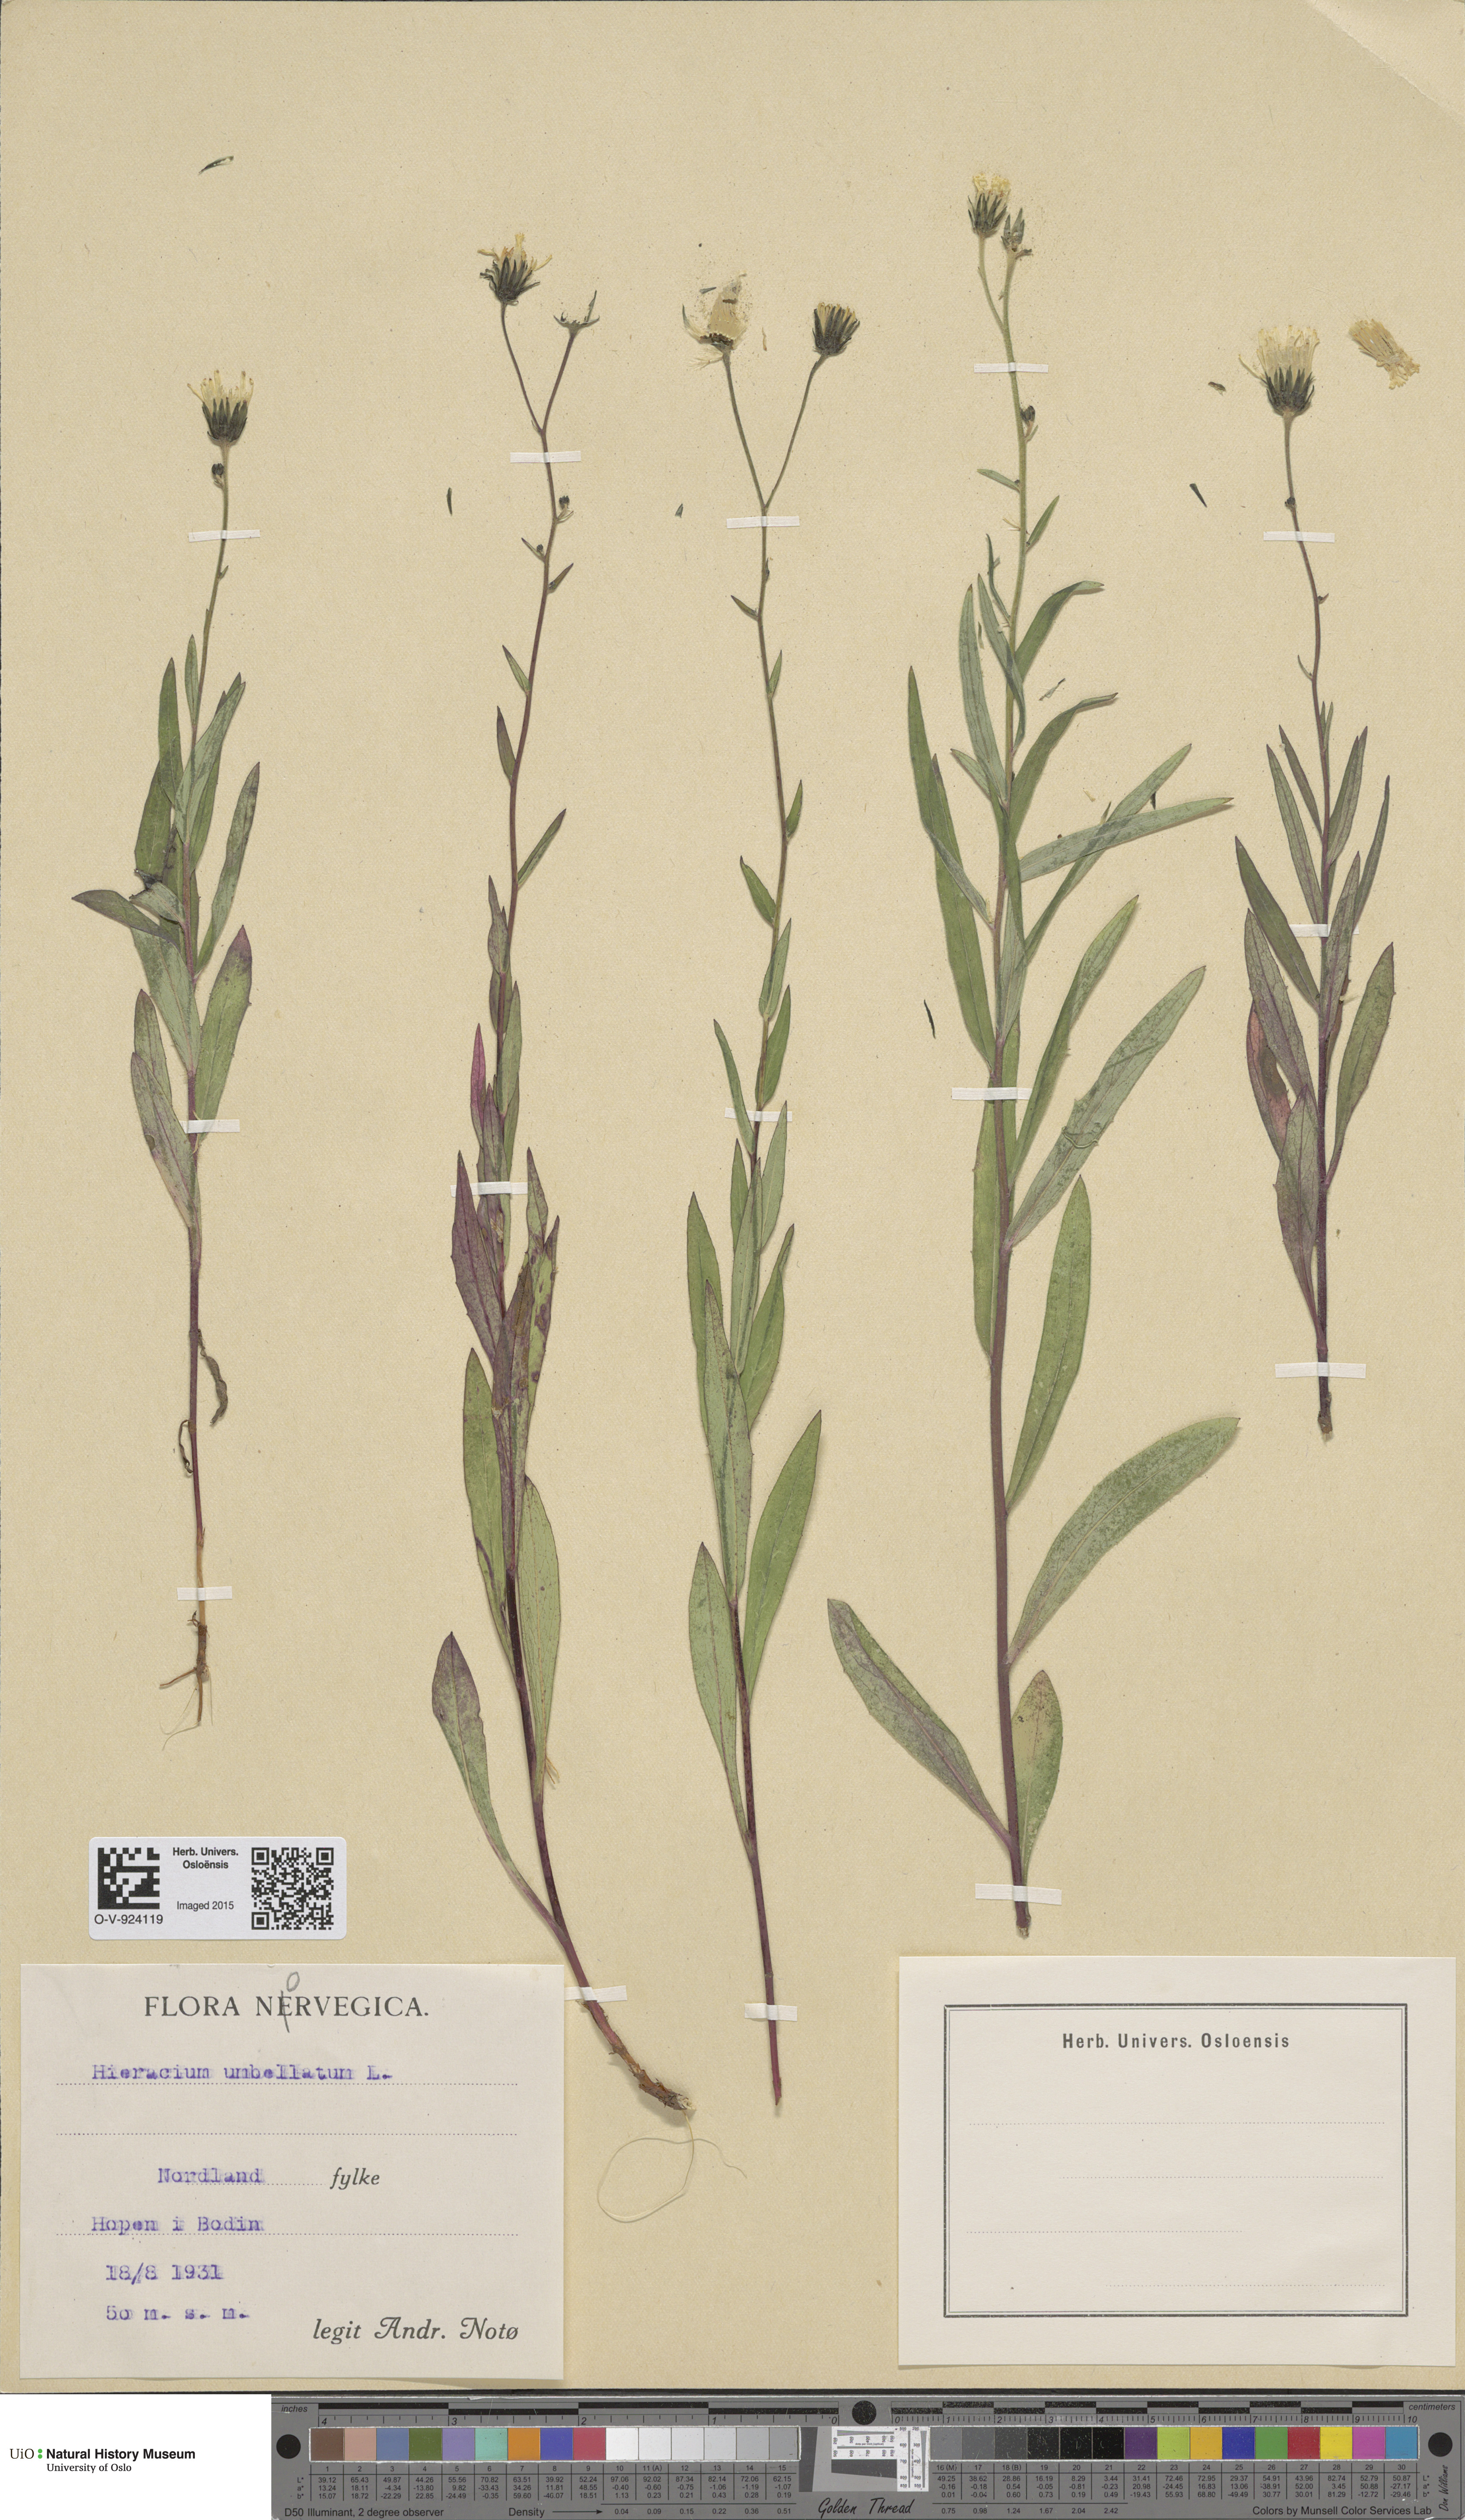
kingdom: Plantae
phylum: Tracheophyta
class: Magnoliopsida
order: Asterales
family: Asteraceae
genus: Hieracium
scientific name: Hieracium umbellatum
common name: Northern hawkweed
